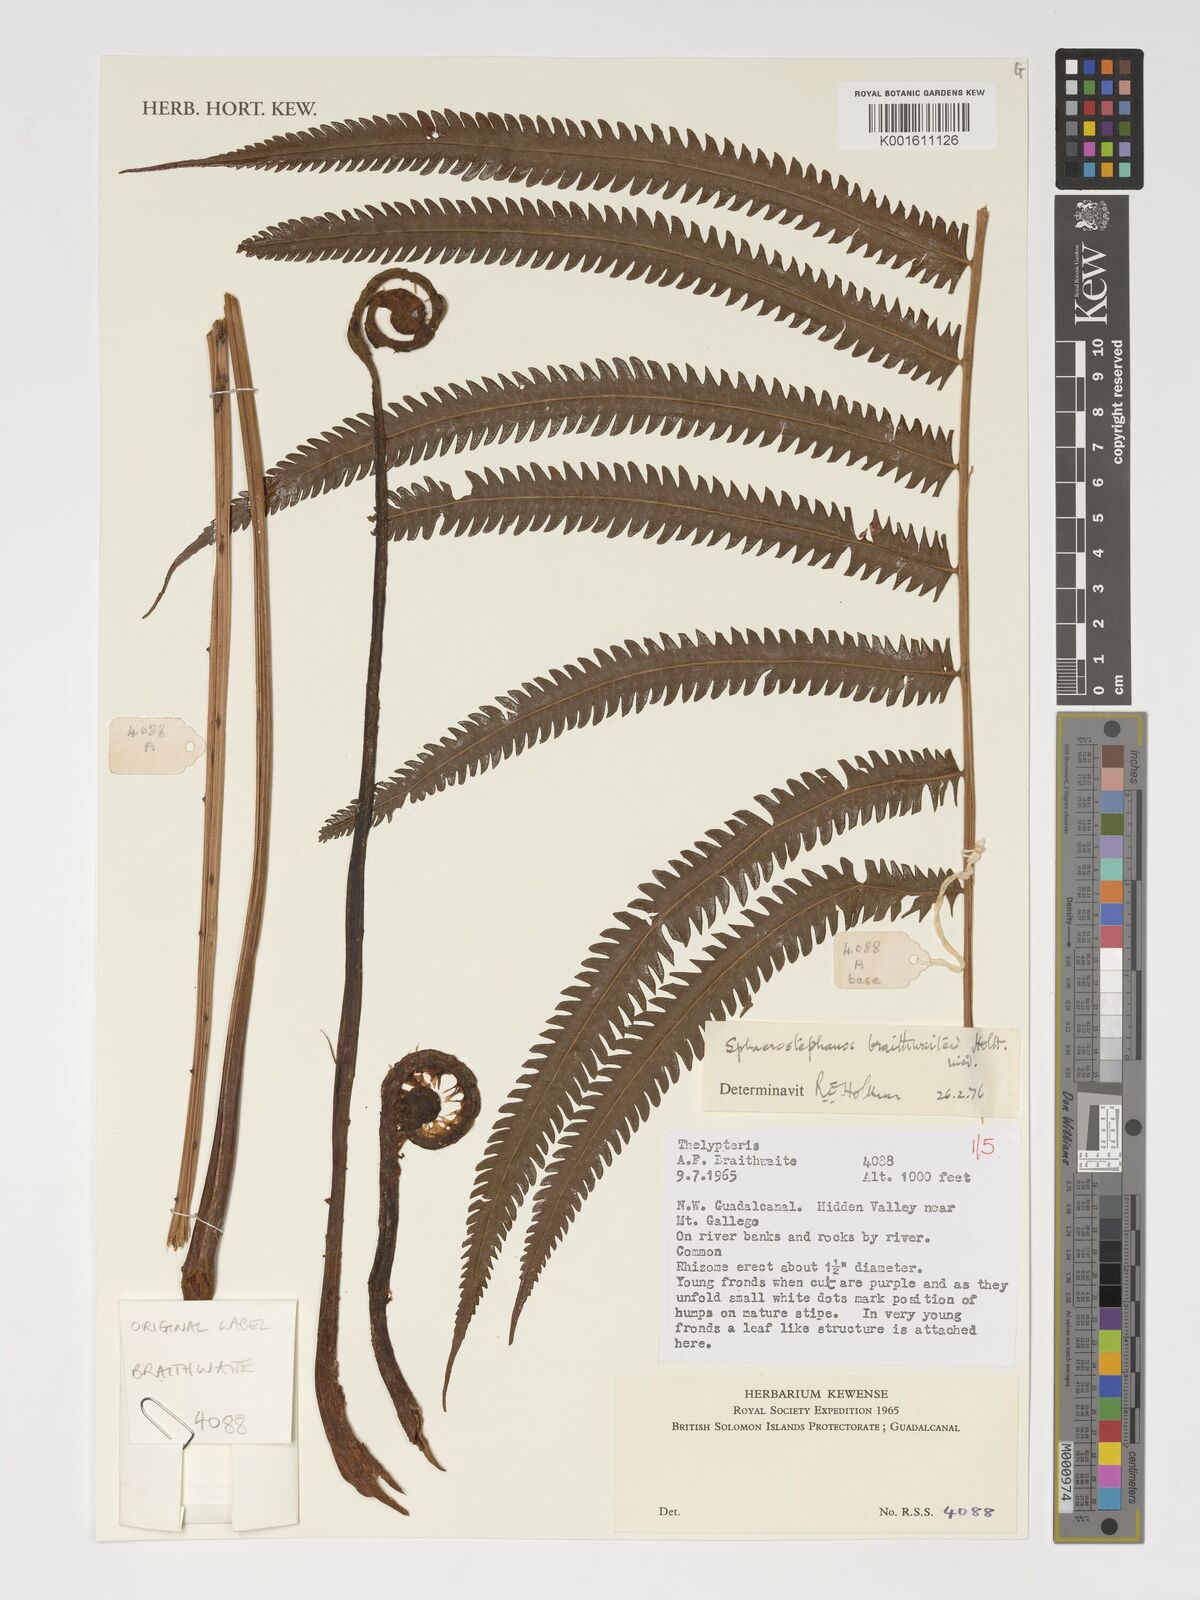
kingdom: Plantae
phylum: Tracheophyta
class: Polypodiopsida
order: Polypodiales
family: Thelypteridaceae
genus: Sphaerostephanos
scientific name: Sphaerostephanos braithwaitei
